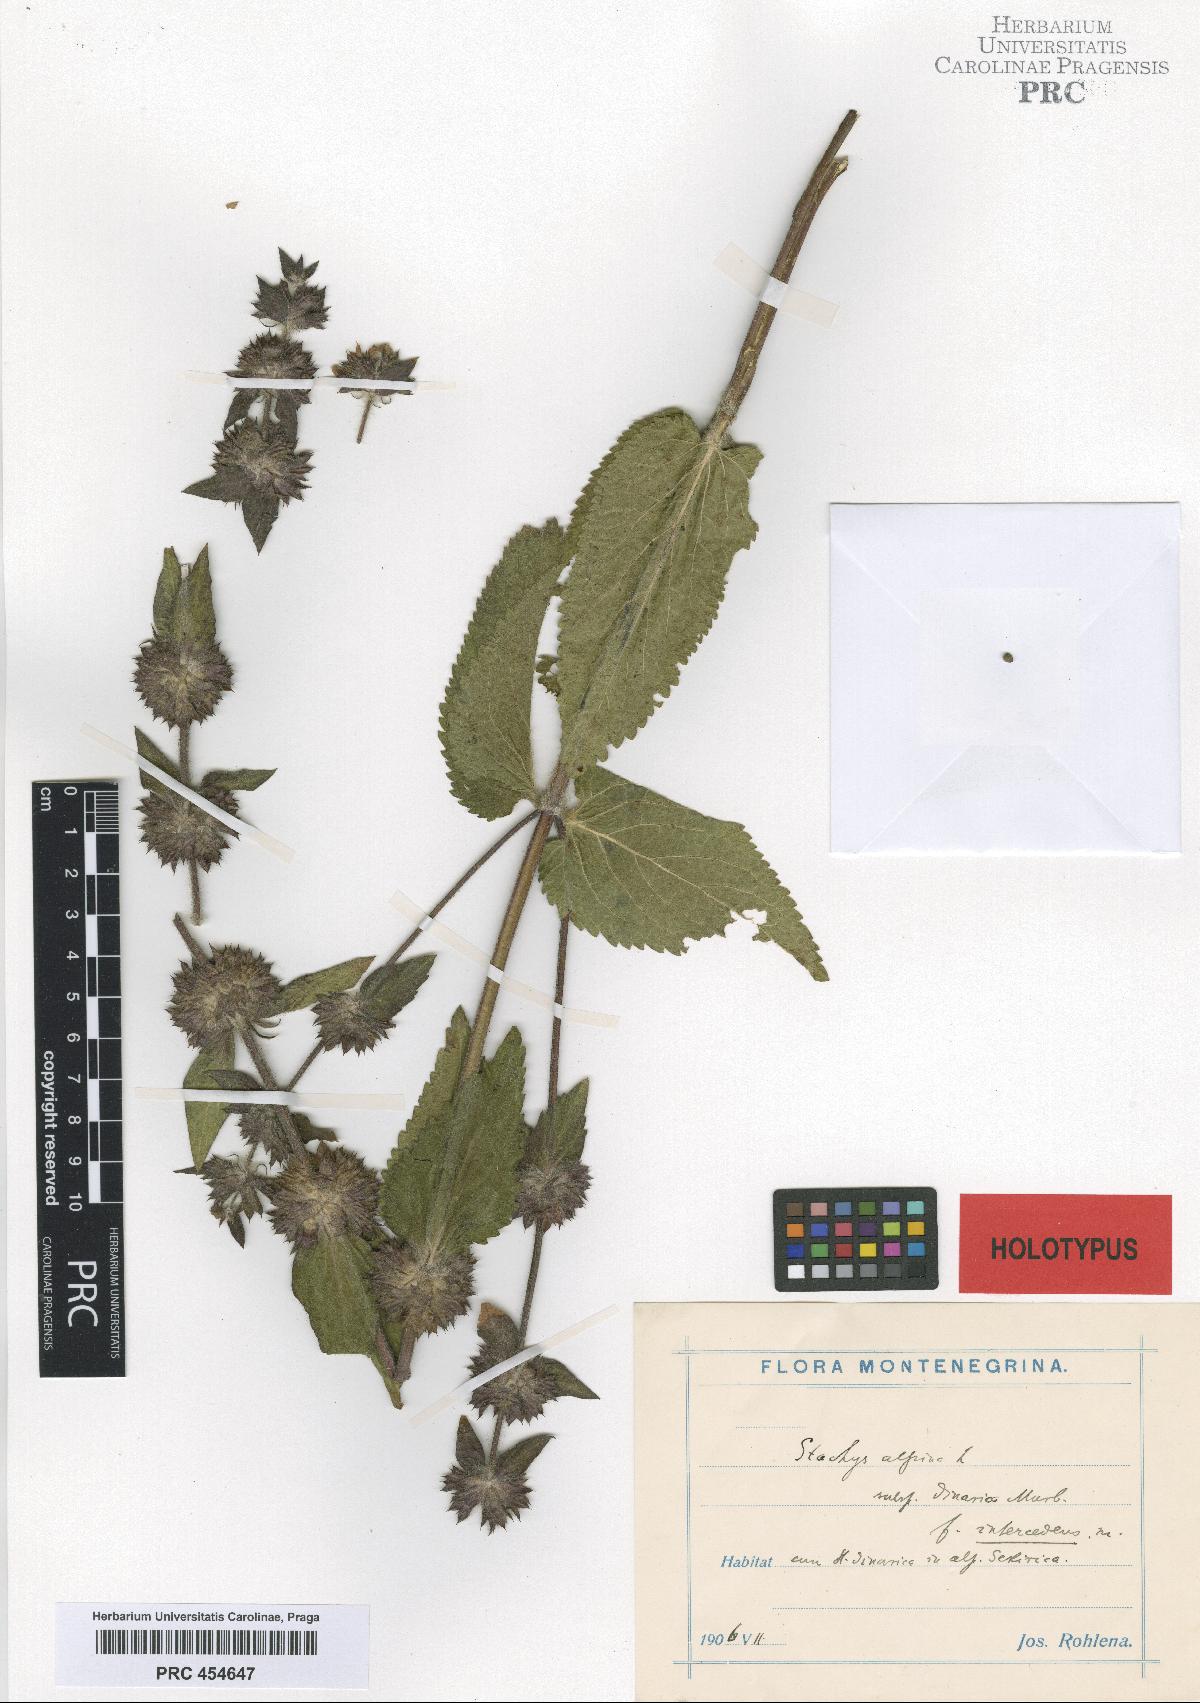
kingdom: Plantae
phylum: Tracheophyta
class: Magnoliopsida
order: Lamiales
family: Lamiaceae
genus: Stachys
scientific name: Stachys alpina
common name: Limestone woundwort
